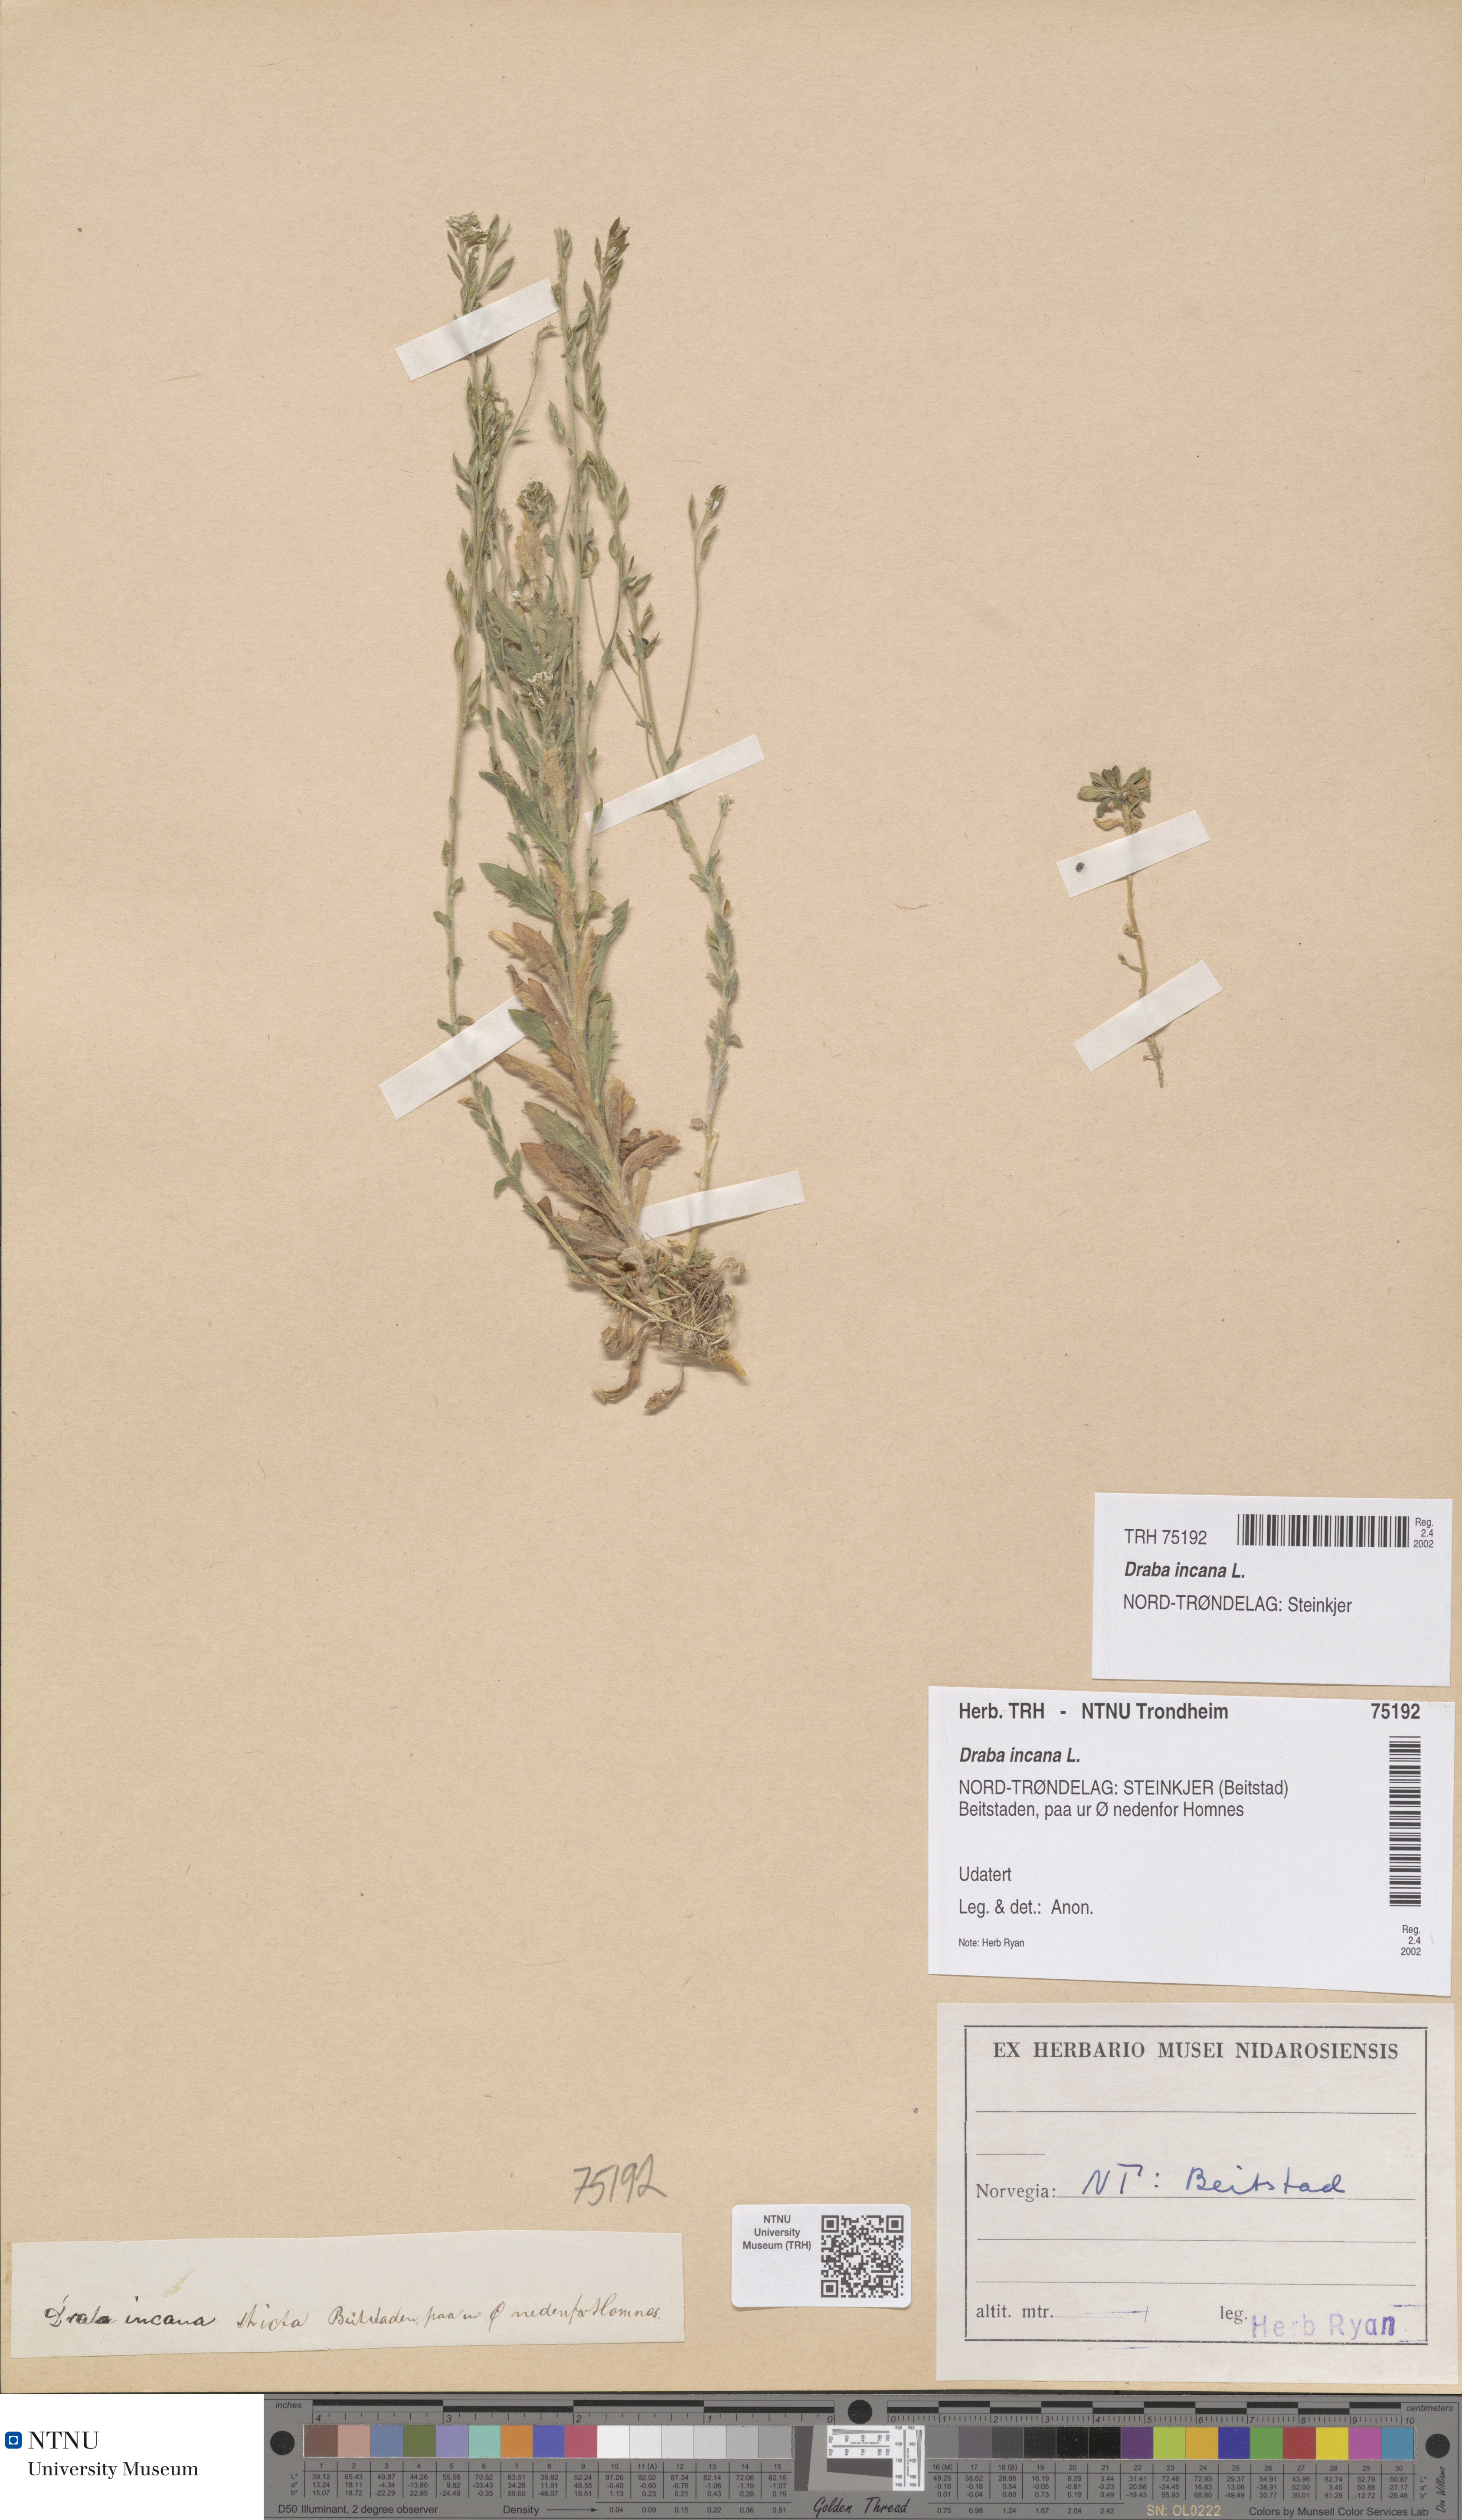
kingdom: Plantae
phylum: Tracheophyta
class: Magnoliopsida
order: Brassicales
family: Brassicaceae
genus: Draba
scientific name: Draba incana
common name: Hoary whitlow-grass
